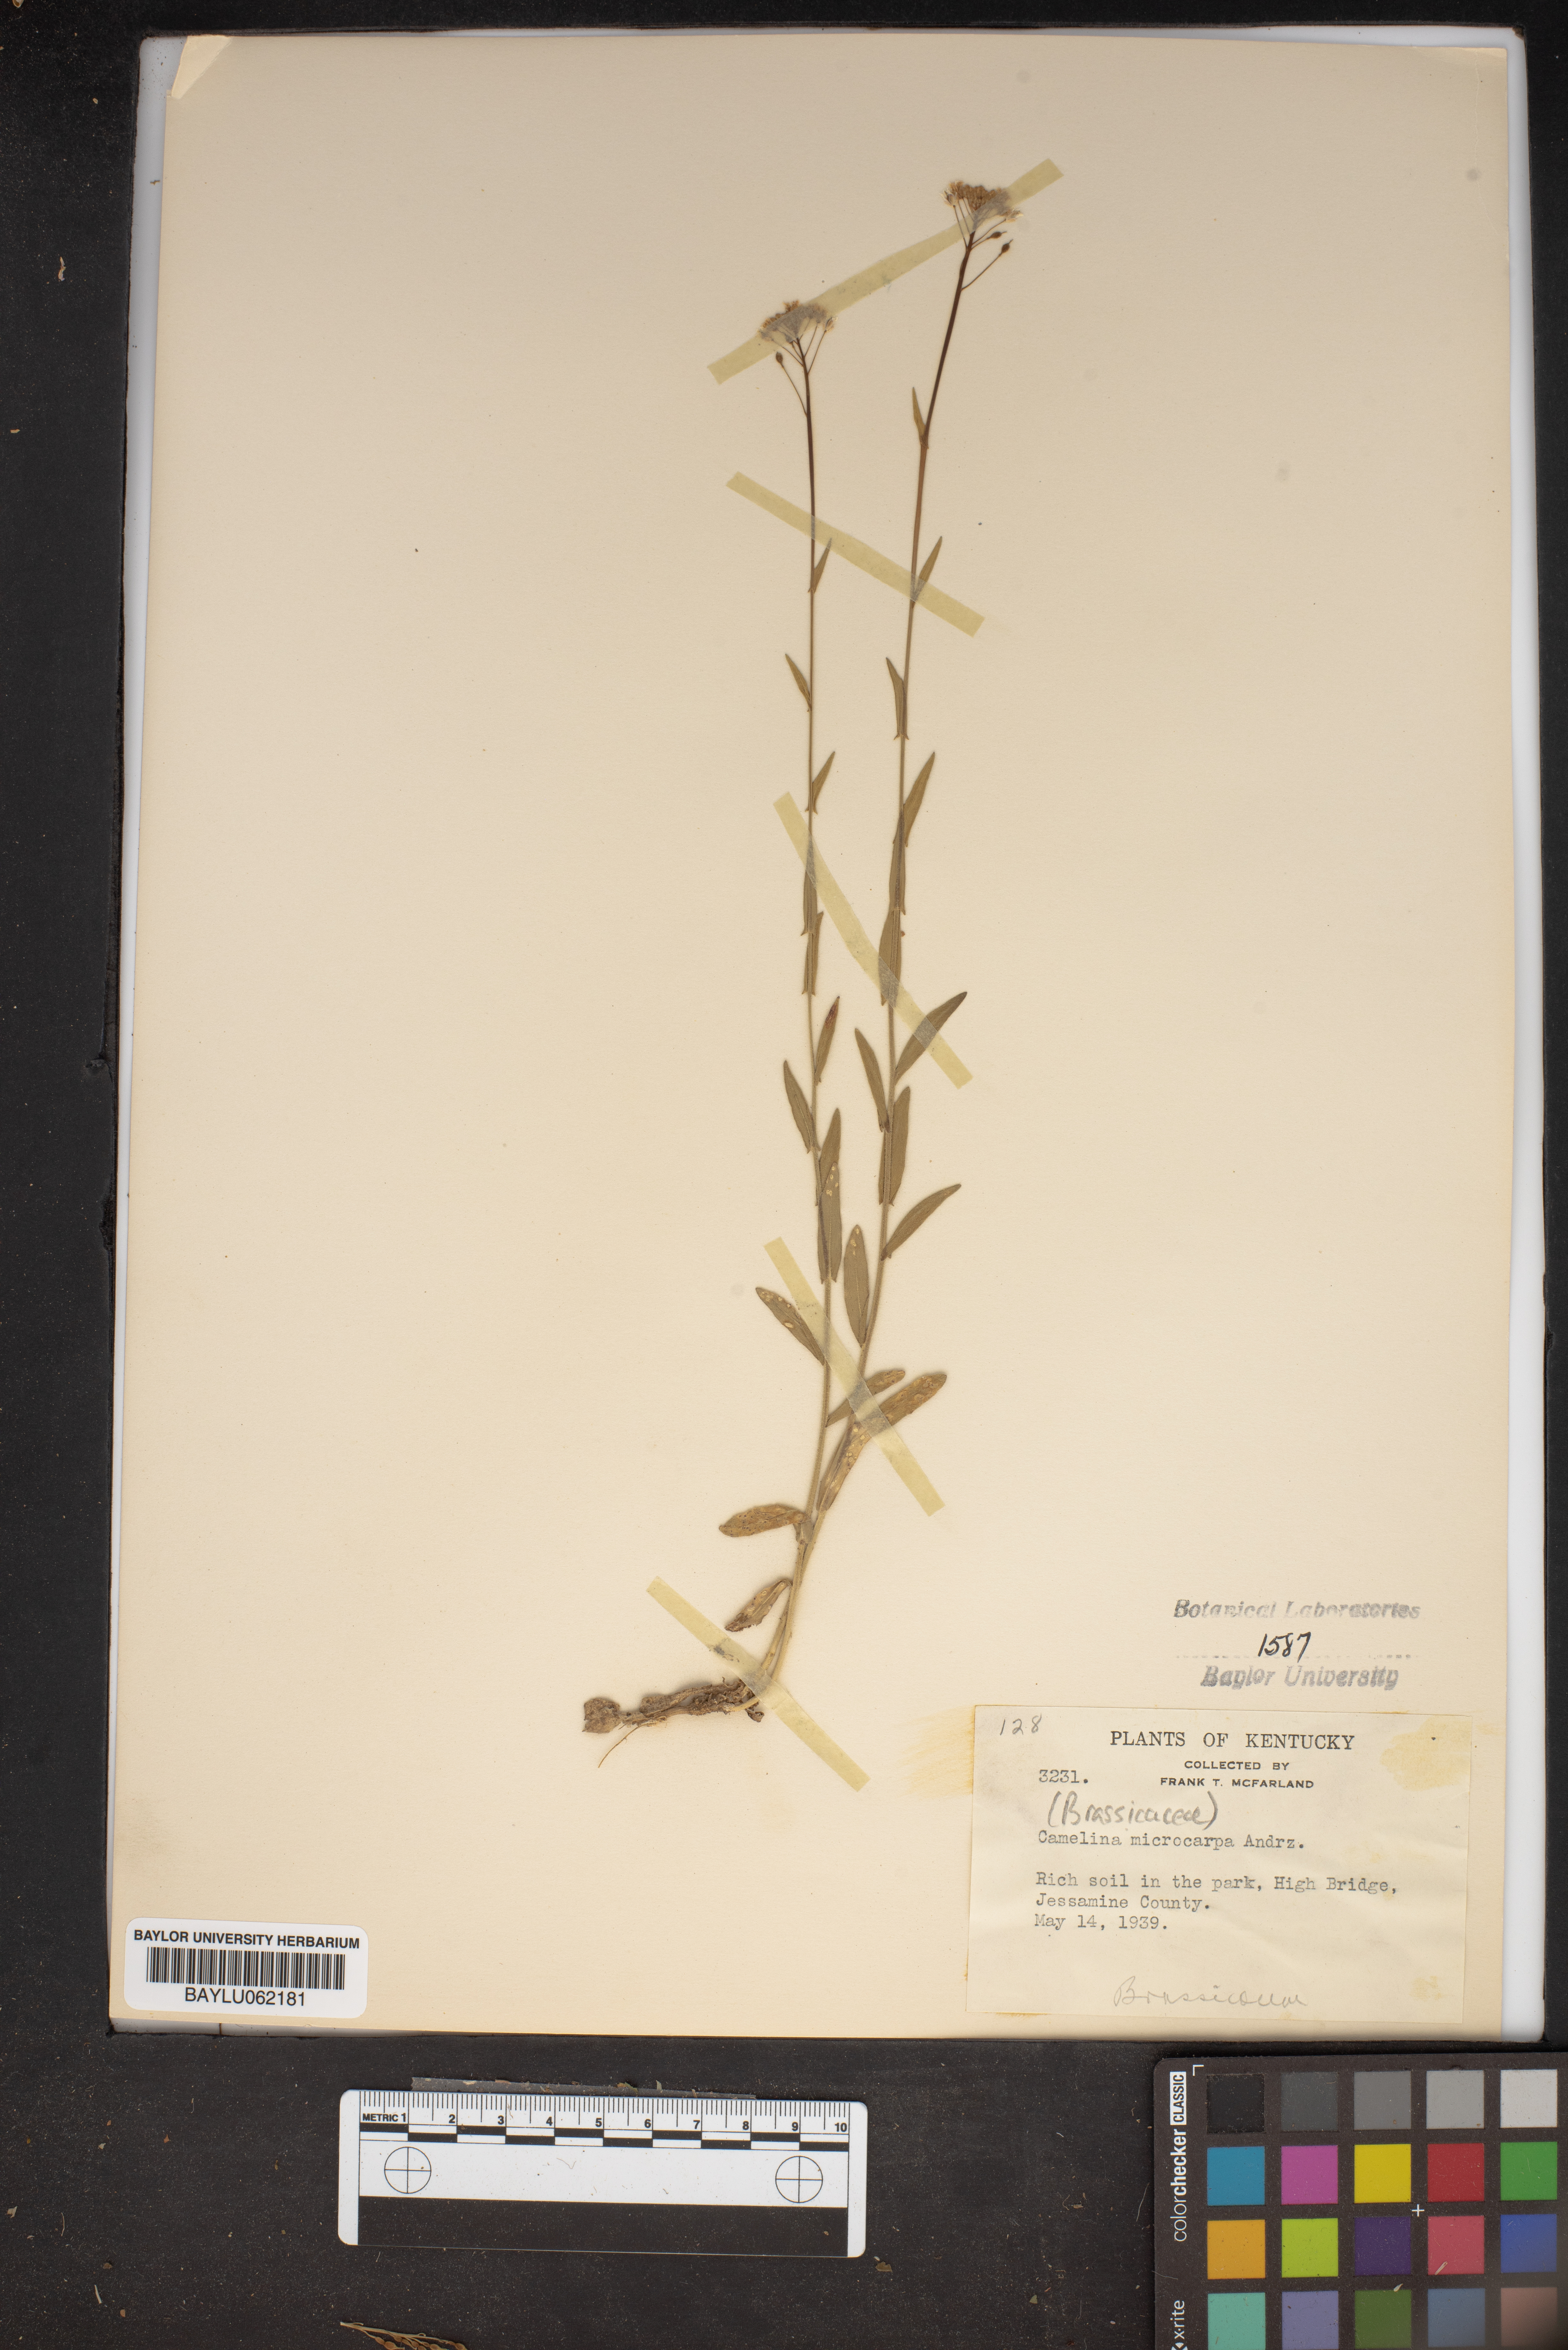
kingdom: Plantae
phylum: Tracheophyta
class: Magnoliopsida
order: Brassicales
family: Brassicaceae
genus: Camelina
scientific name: Camelina microcarpa
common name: Lesser gold-of-pleasure
